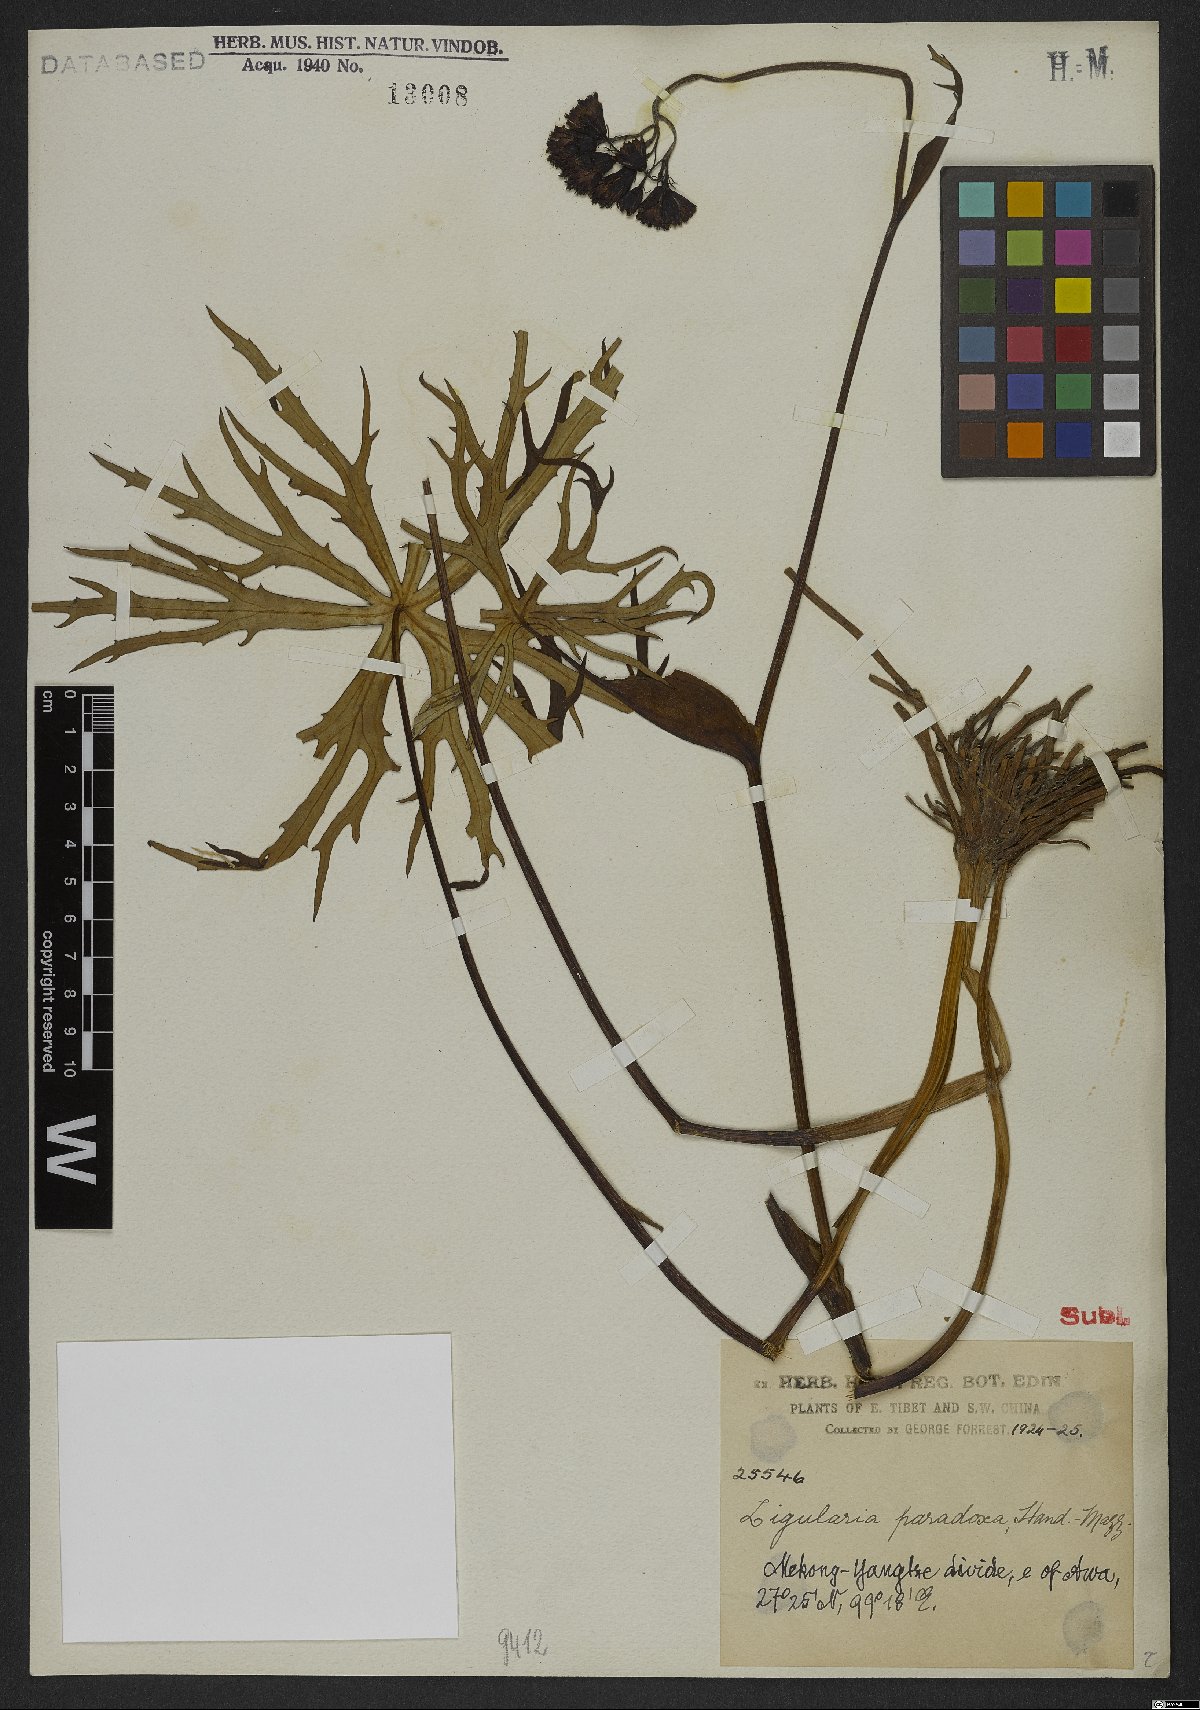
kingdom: Plantae
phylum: Tracheophyta
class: Magnoliopsida
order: Asterales
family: Asteraceae
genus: Ligularia
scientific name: Ligularia paradoxa
